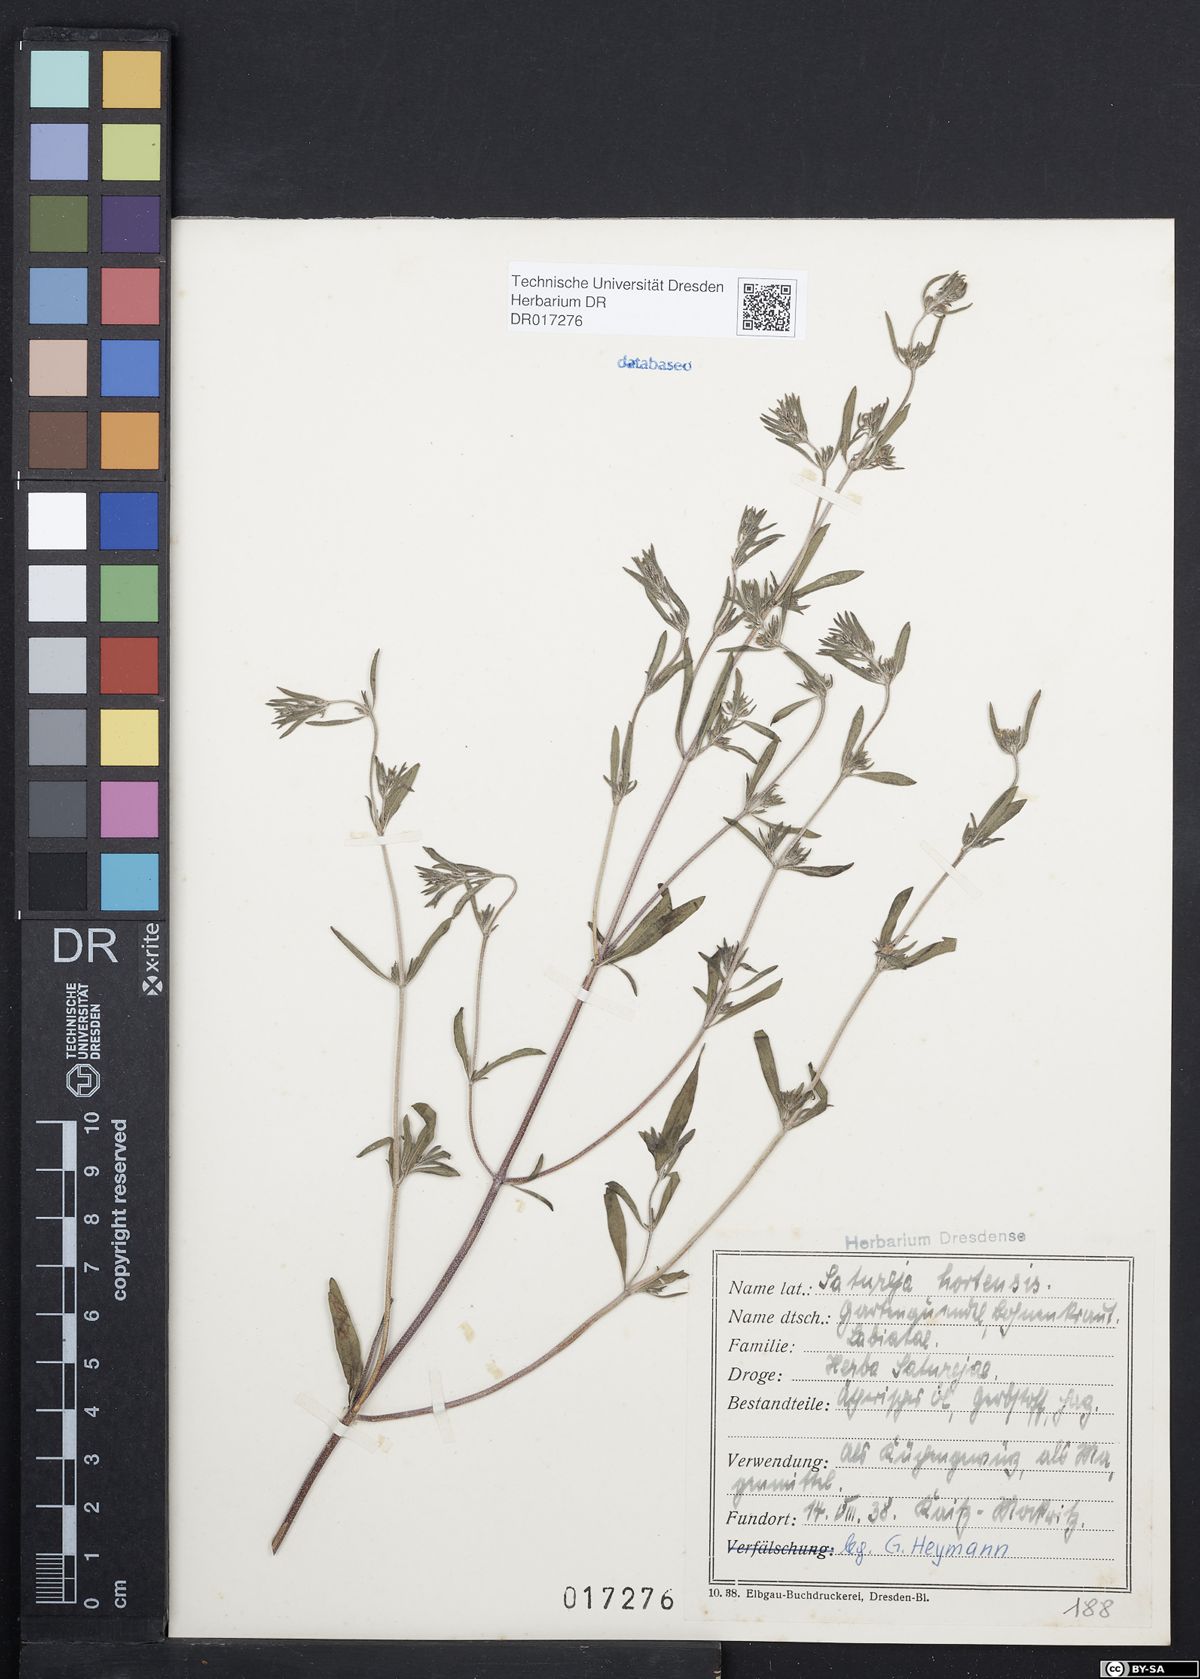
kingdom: Plantae
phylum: Tracheophyta
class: Magnoliopsida
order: Lamiales
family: Lamiaceae
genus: Satureja
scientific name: Satureja hortensis
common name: Summer savory
